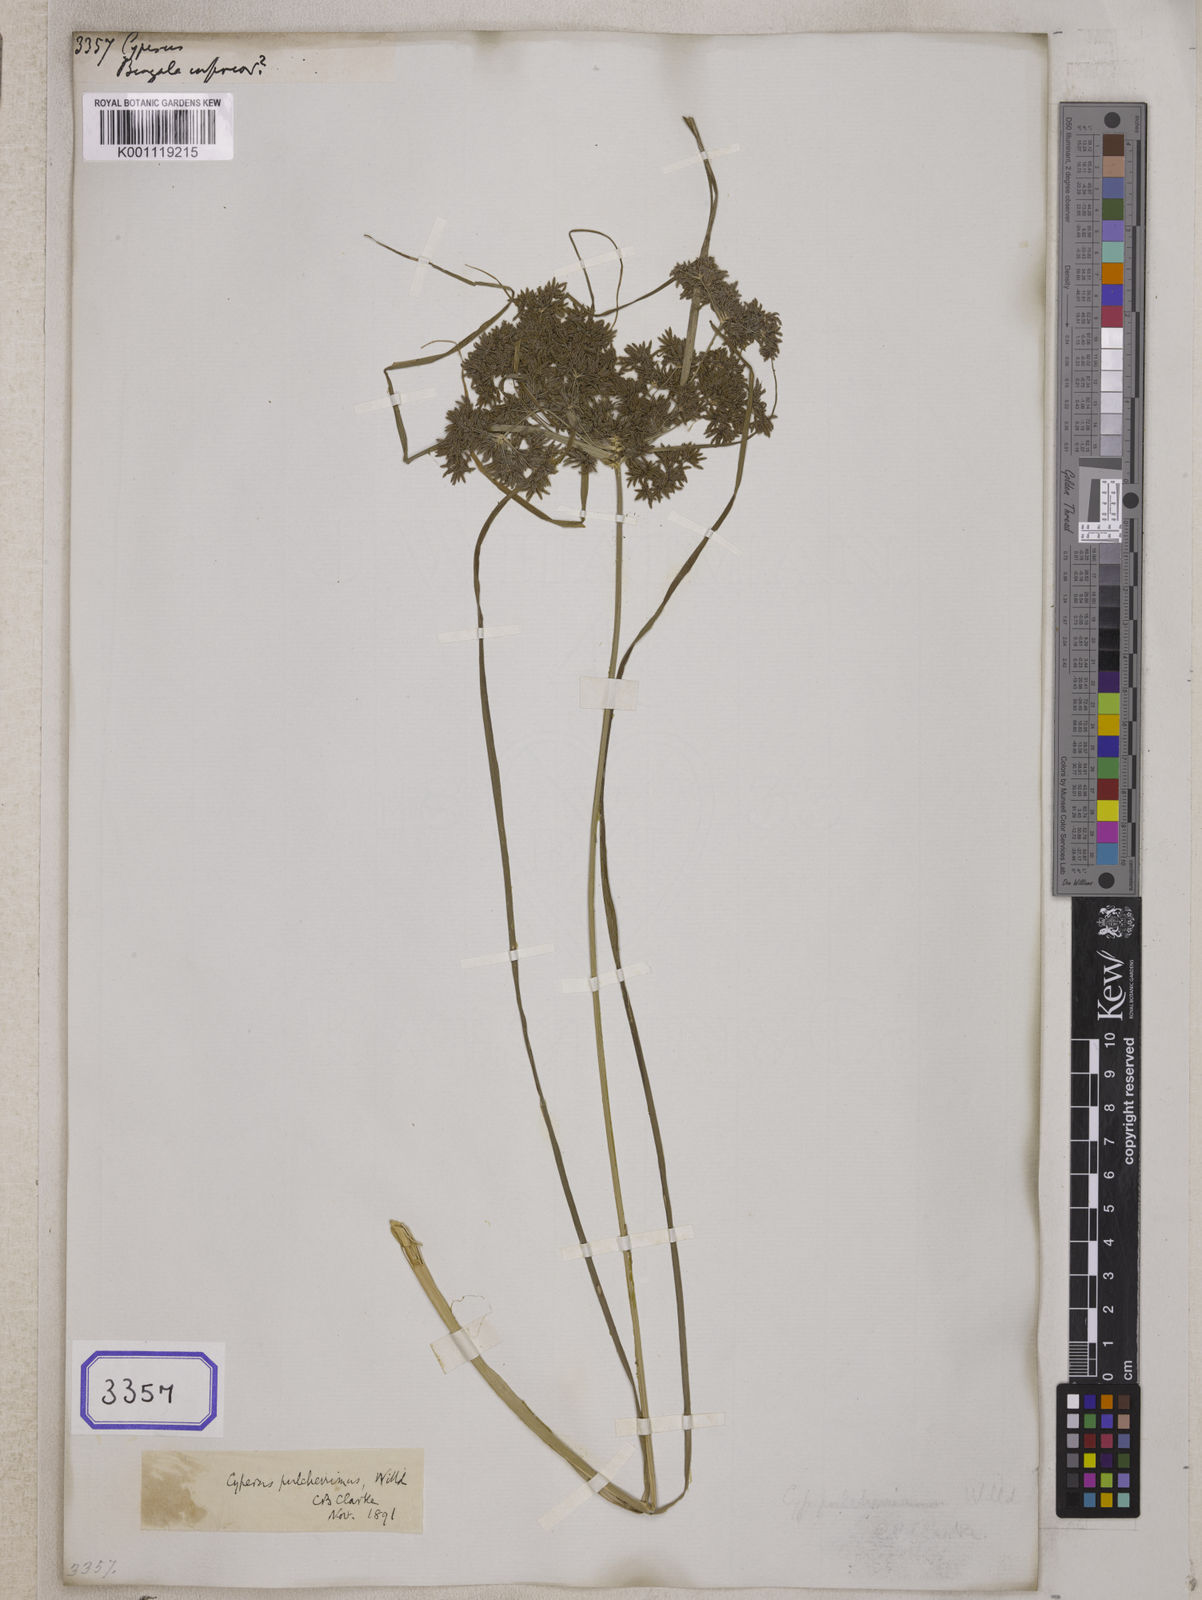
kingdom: Plantae
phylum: Tracheophyta
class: Liliopsida
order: Poales
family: Cyperaceae
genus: Cyperus
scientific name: Cyperus
